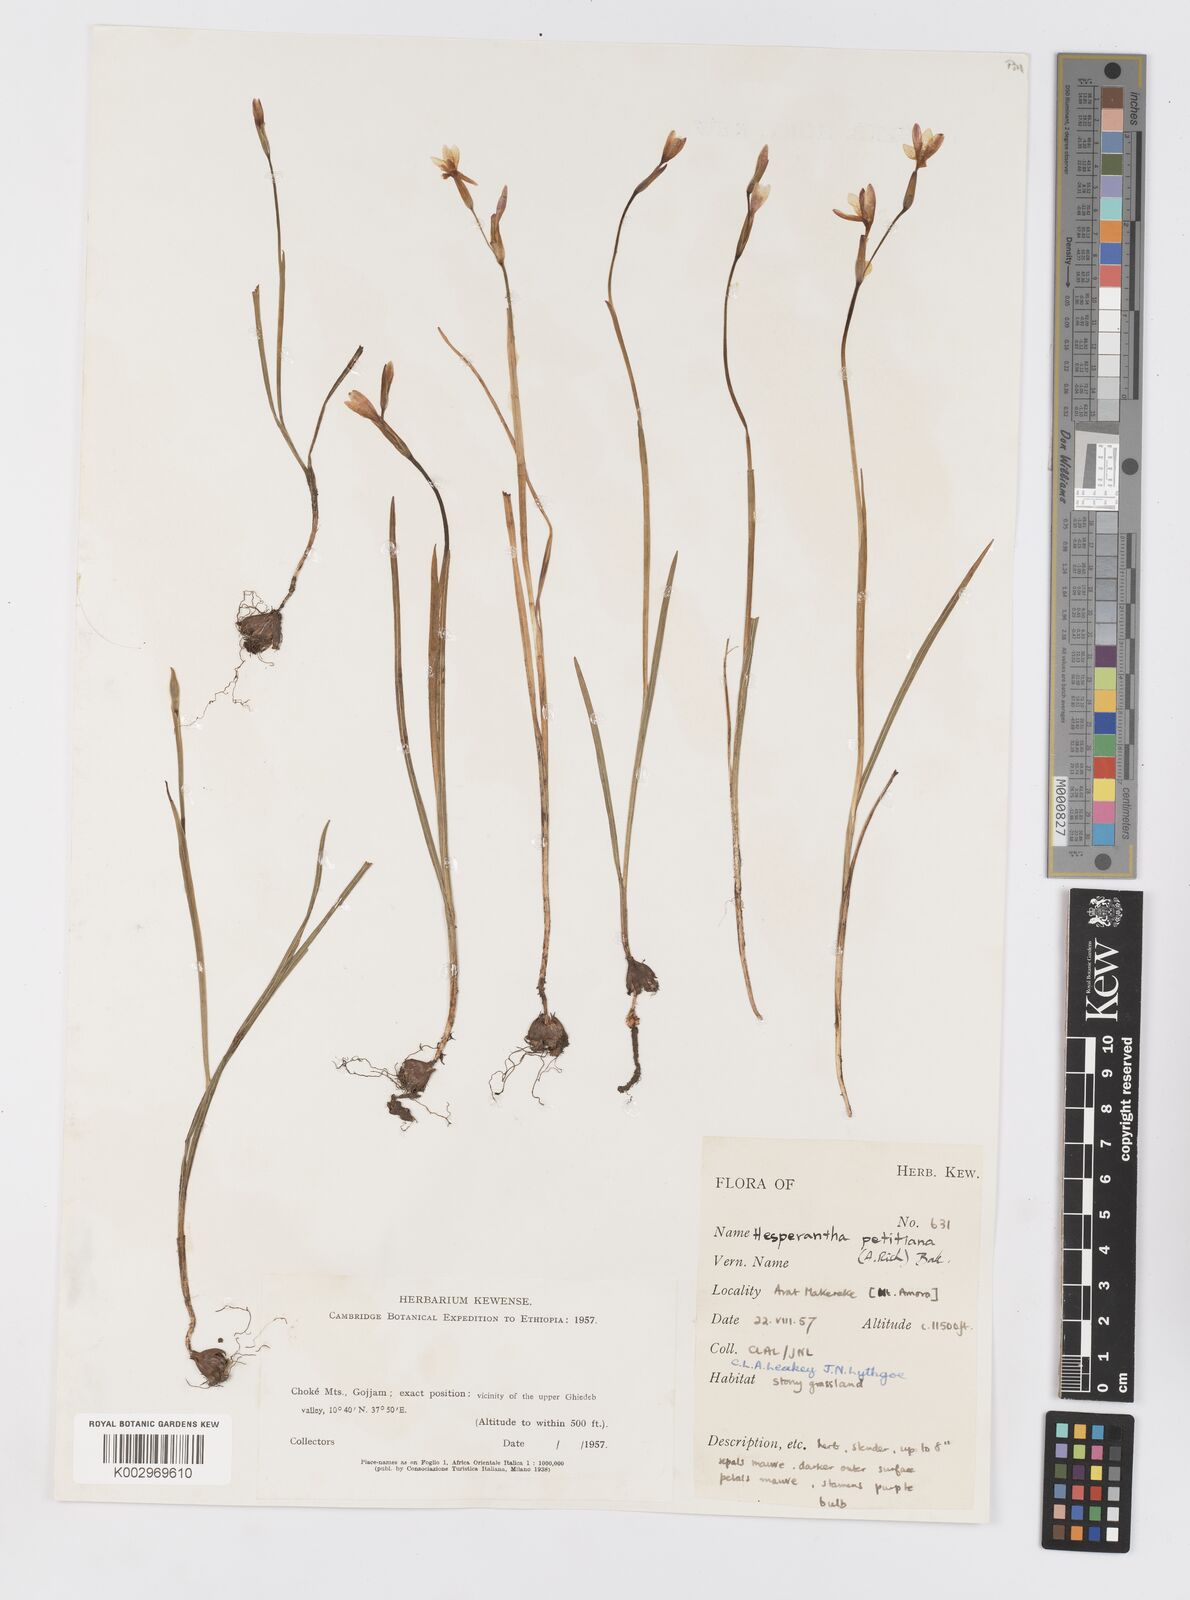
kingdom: Plantae
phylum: Tracheophyta
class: Liliopsida
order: Asparagales
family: Iridaceae
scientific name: Iridaceae
